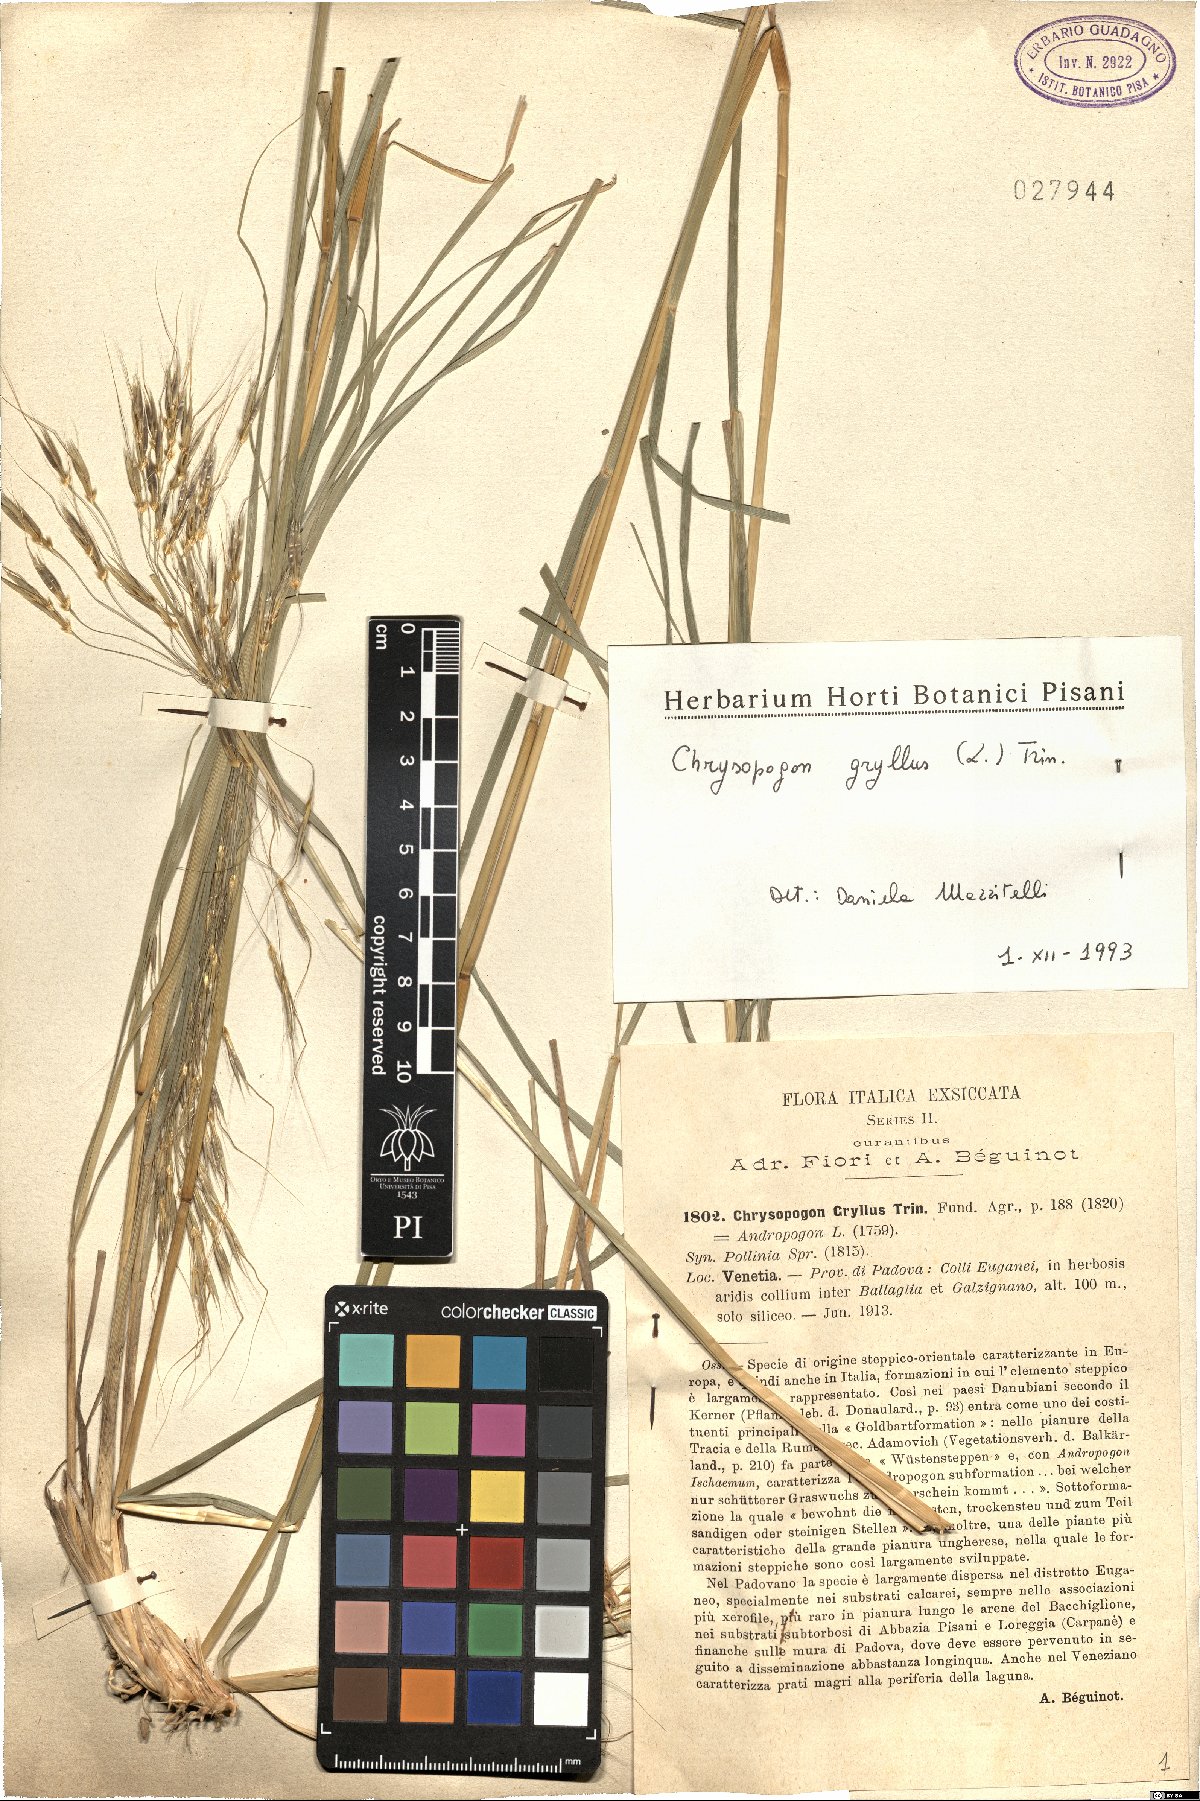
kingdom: Plantae
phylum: Tracheophyta
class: Liliopsida
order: Poales
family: Poaceae
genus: Chrysopogon
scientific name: Chrysopogon gryllus
